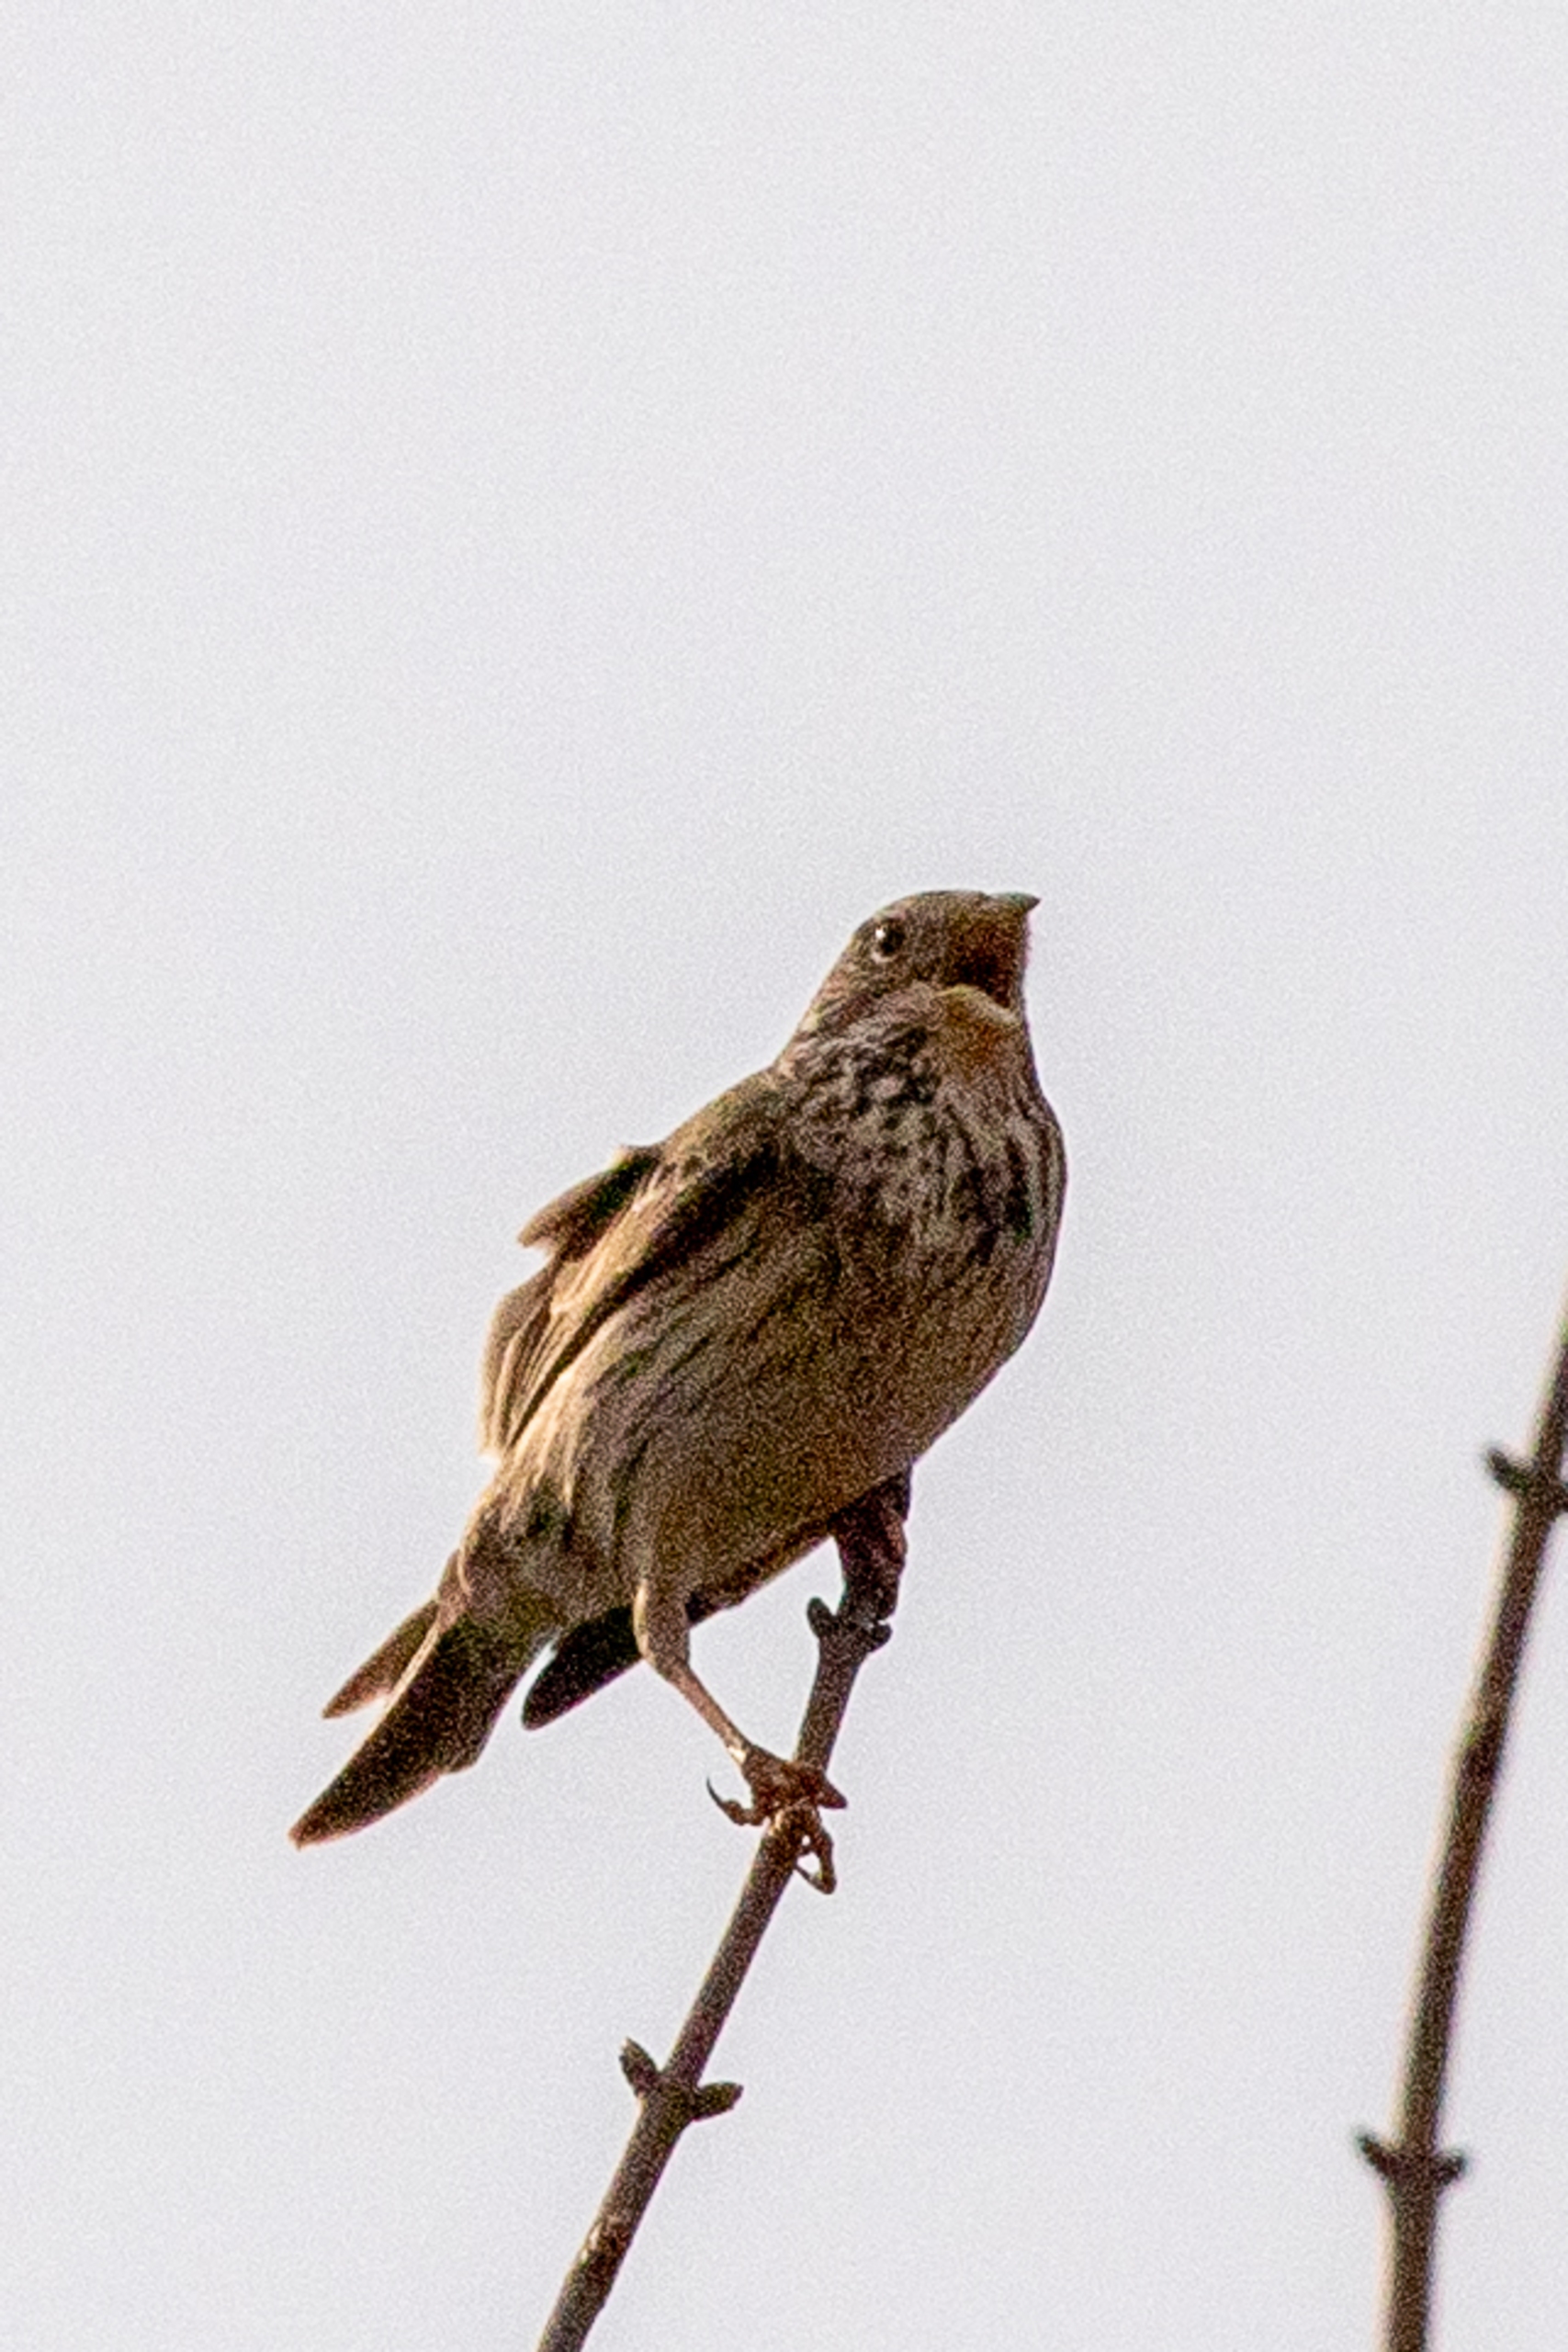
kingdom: Animalia
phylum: Chordata
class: Aves
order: Passeriformes
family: Emberizidae
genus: Emberiza
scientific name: Emberiza calandra
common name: Bomlærke
